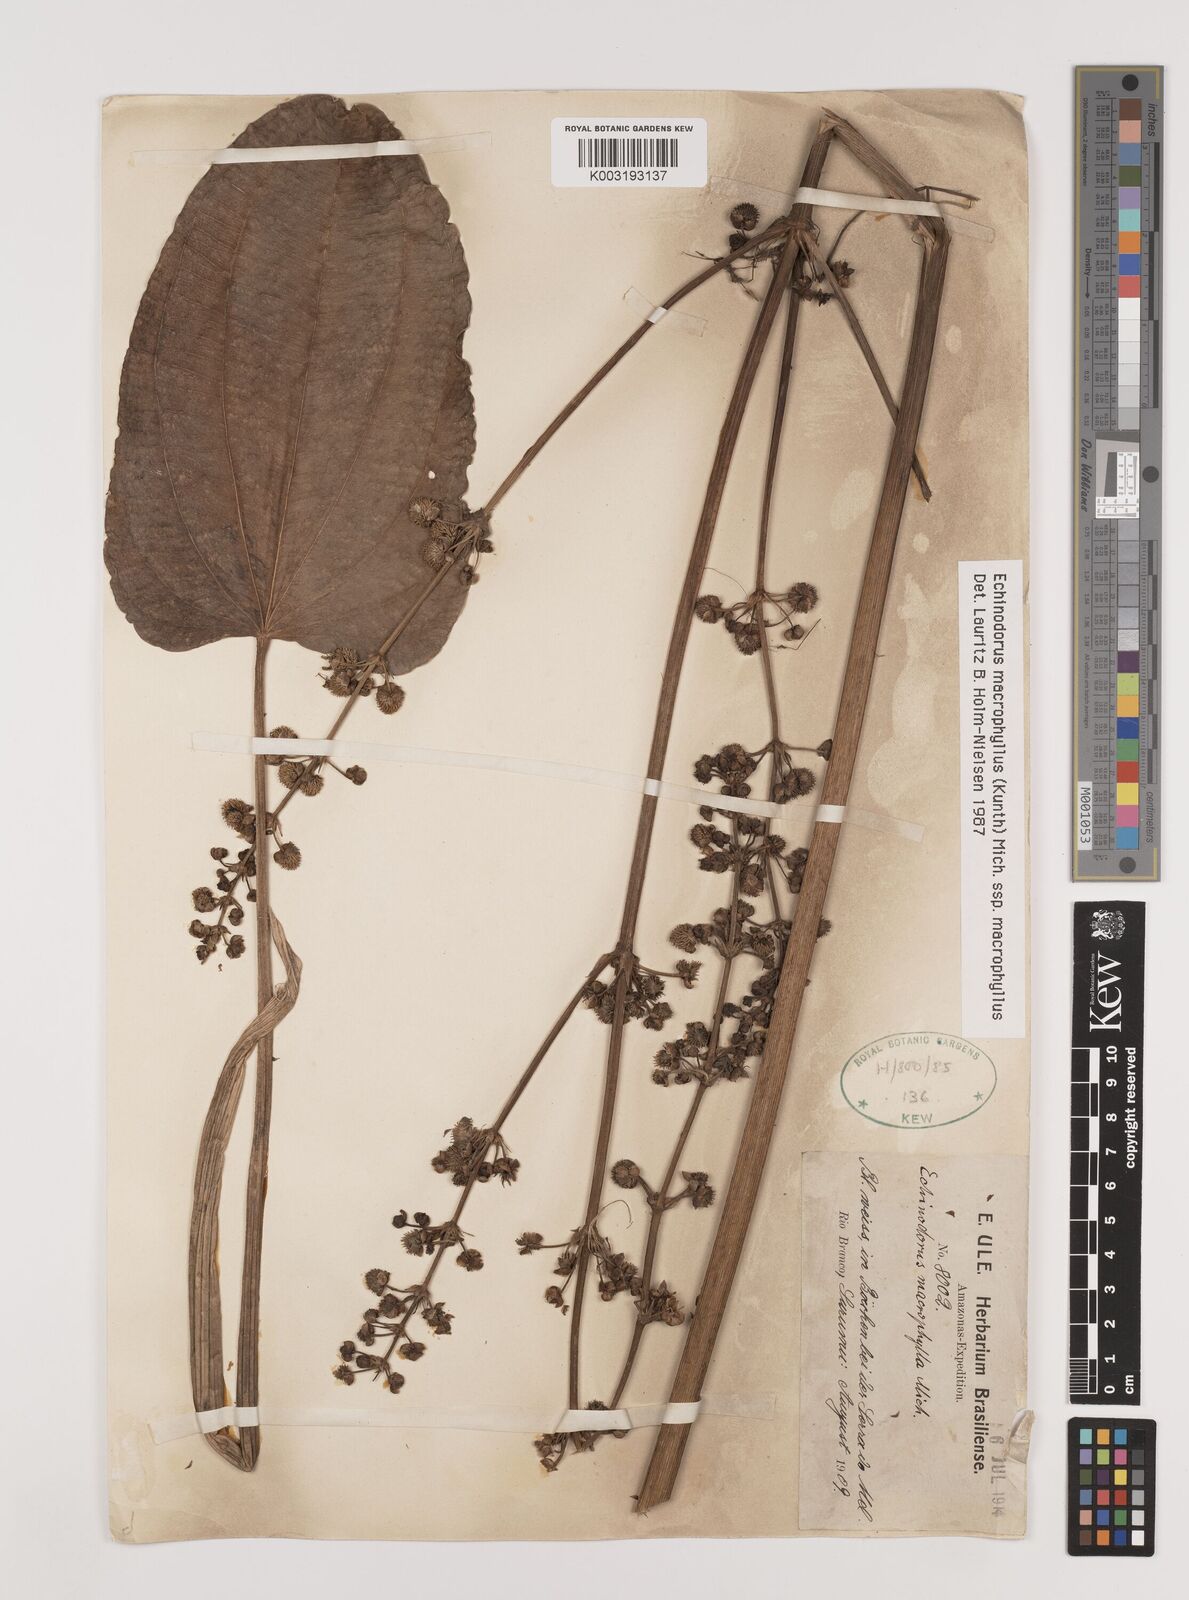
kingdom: Plantae
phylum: Tracheophyta
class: Liliopsida
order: Alismatales
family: Alismataceae
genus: Aquarius
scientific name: Aquarius macrophyllus
